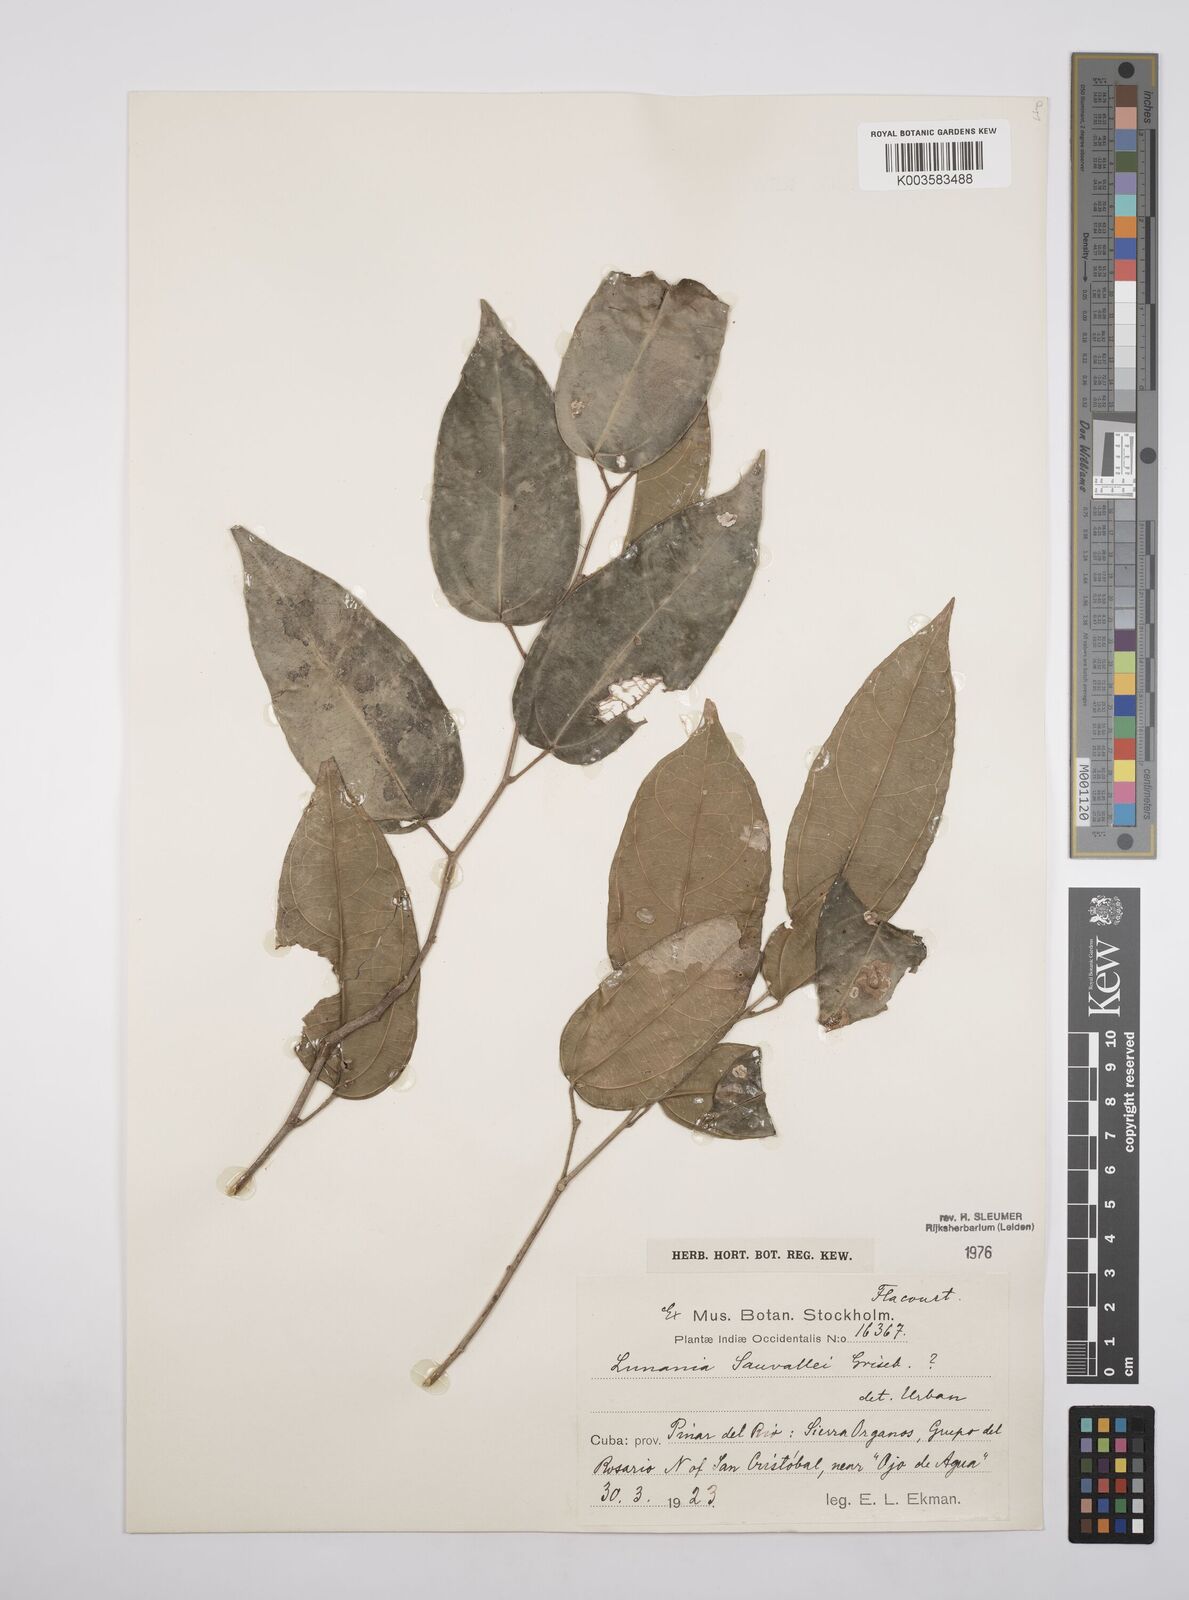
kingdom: Plantae
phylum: Tracheophyta
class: Magnoliopsida
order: Malpighiales
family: Salicaceae
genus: Lunania
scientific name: Lunania sauvallei
